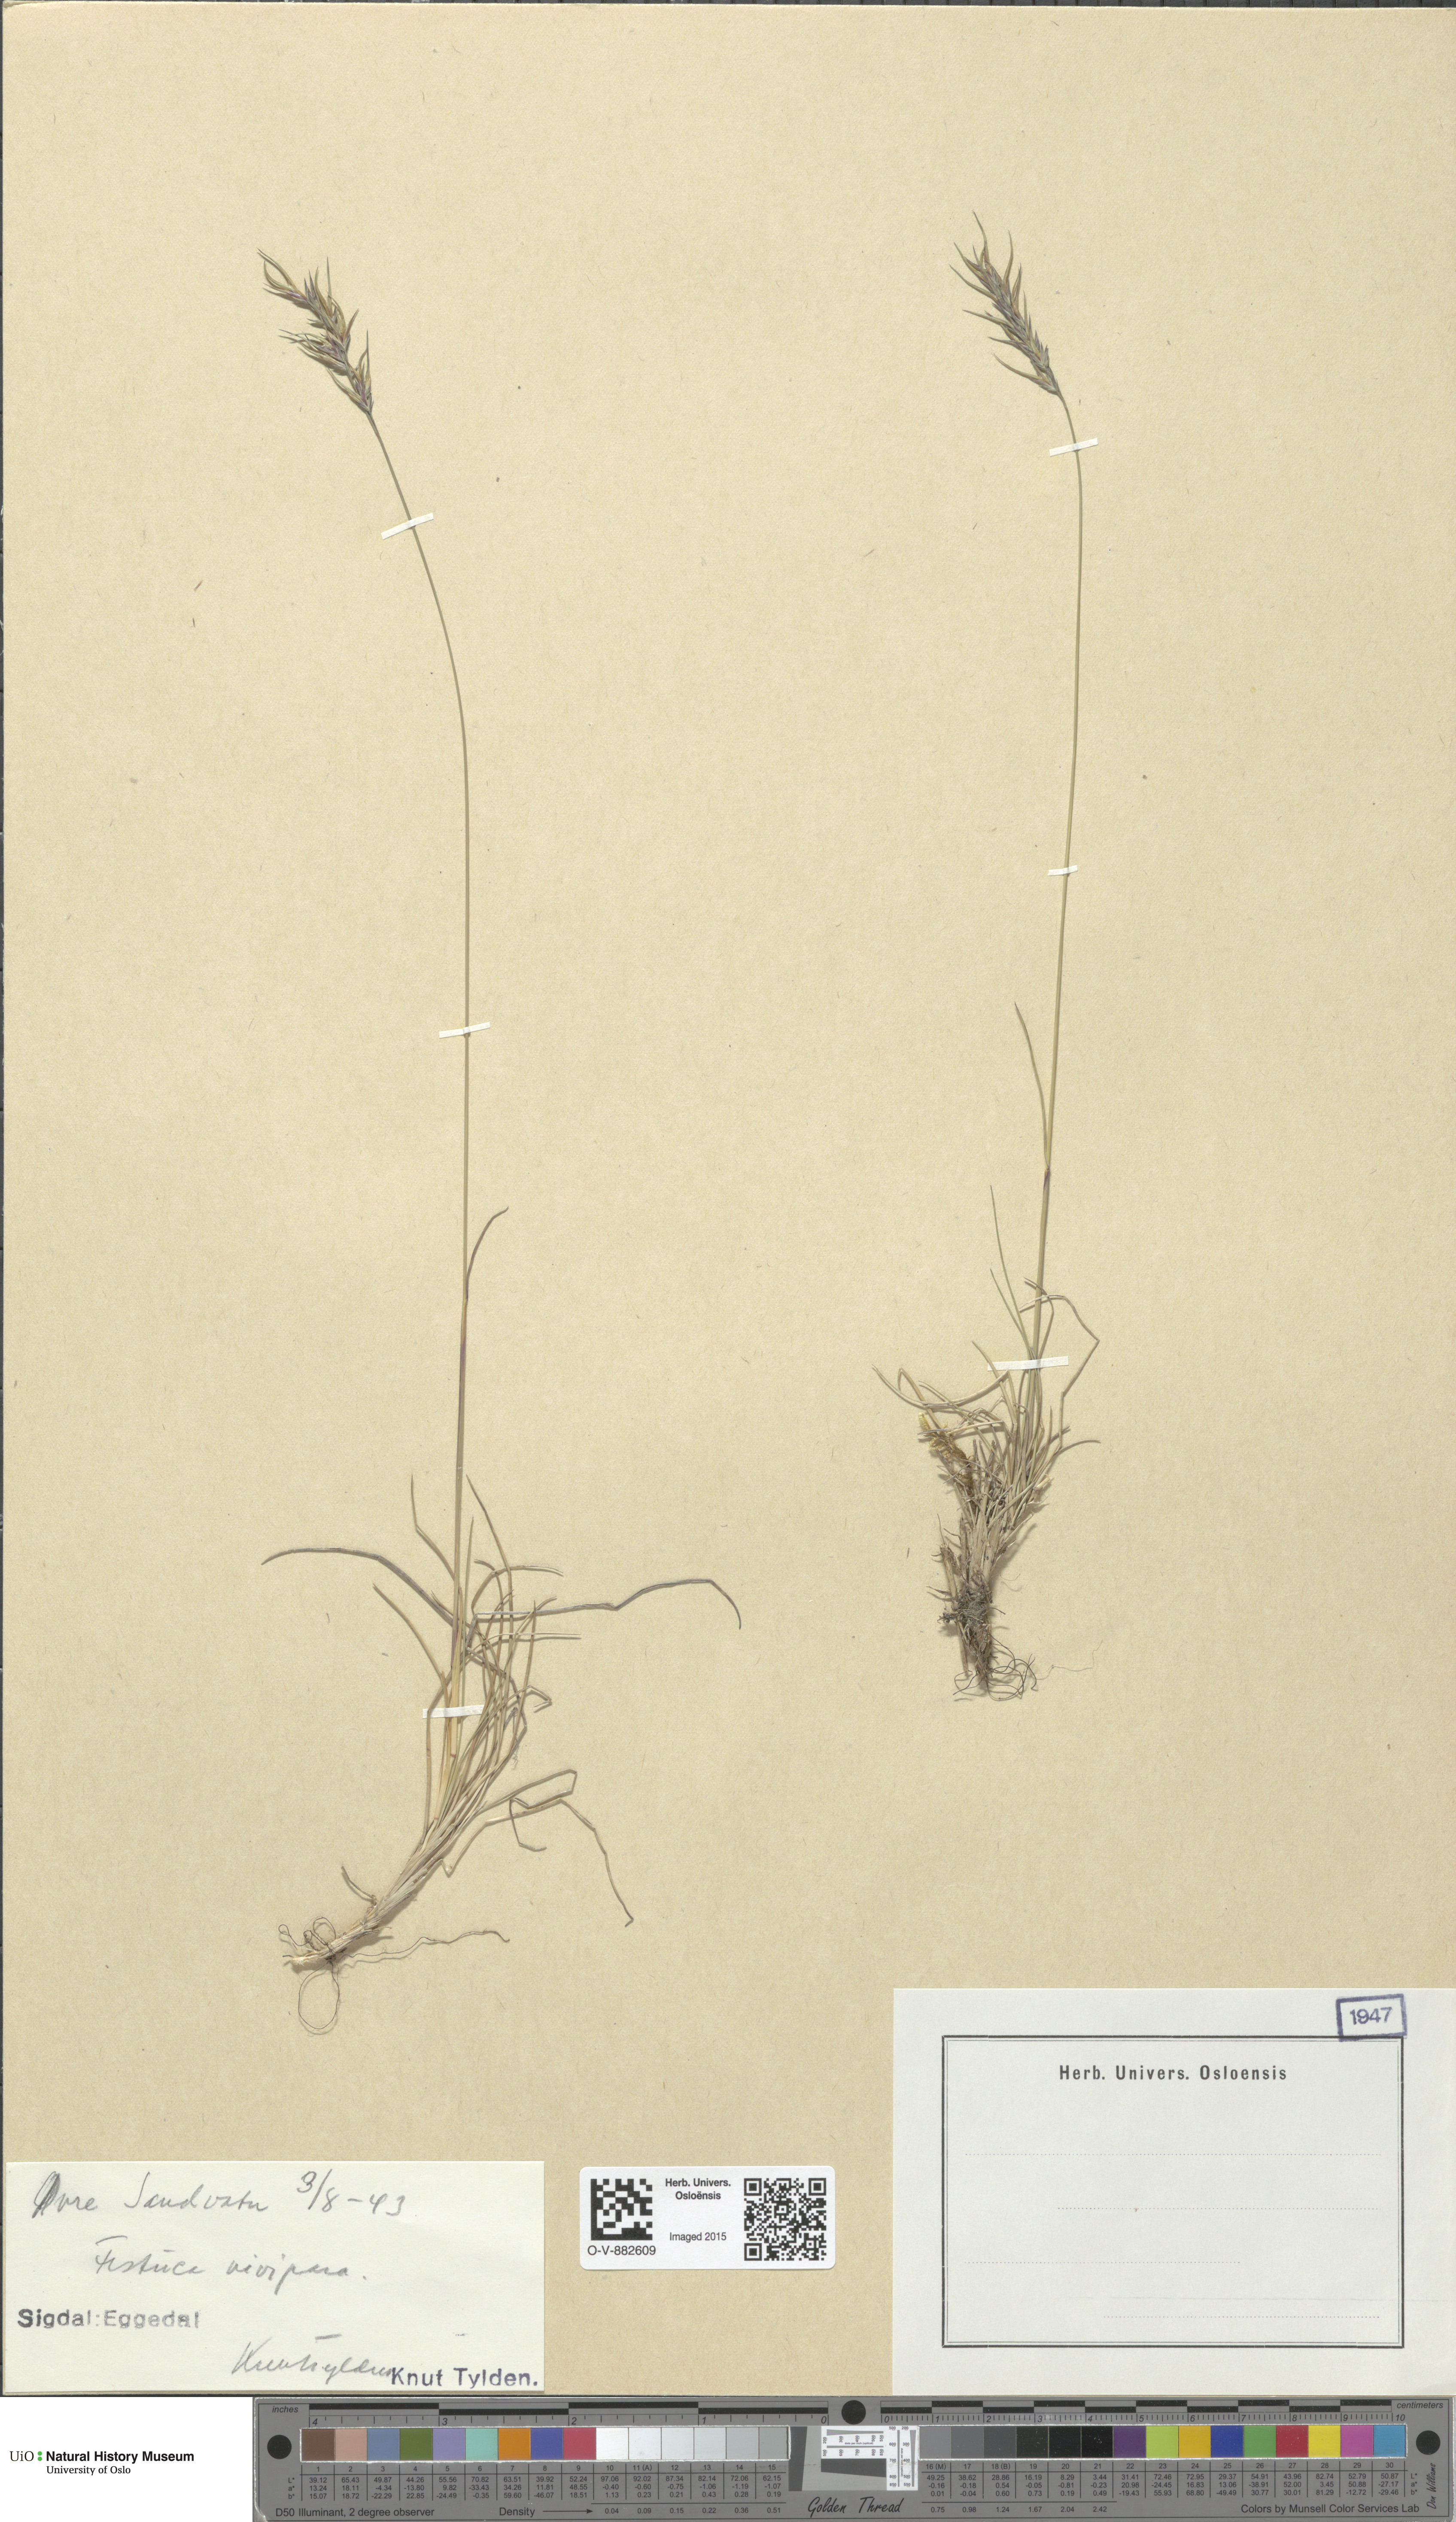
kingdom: Plantae
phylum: Tracheophyta
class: Liliopsida
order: Poales
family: Poaceae
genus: Festuca
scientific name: Festuca vivipara
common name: Viviparous sheep's-fescue
